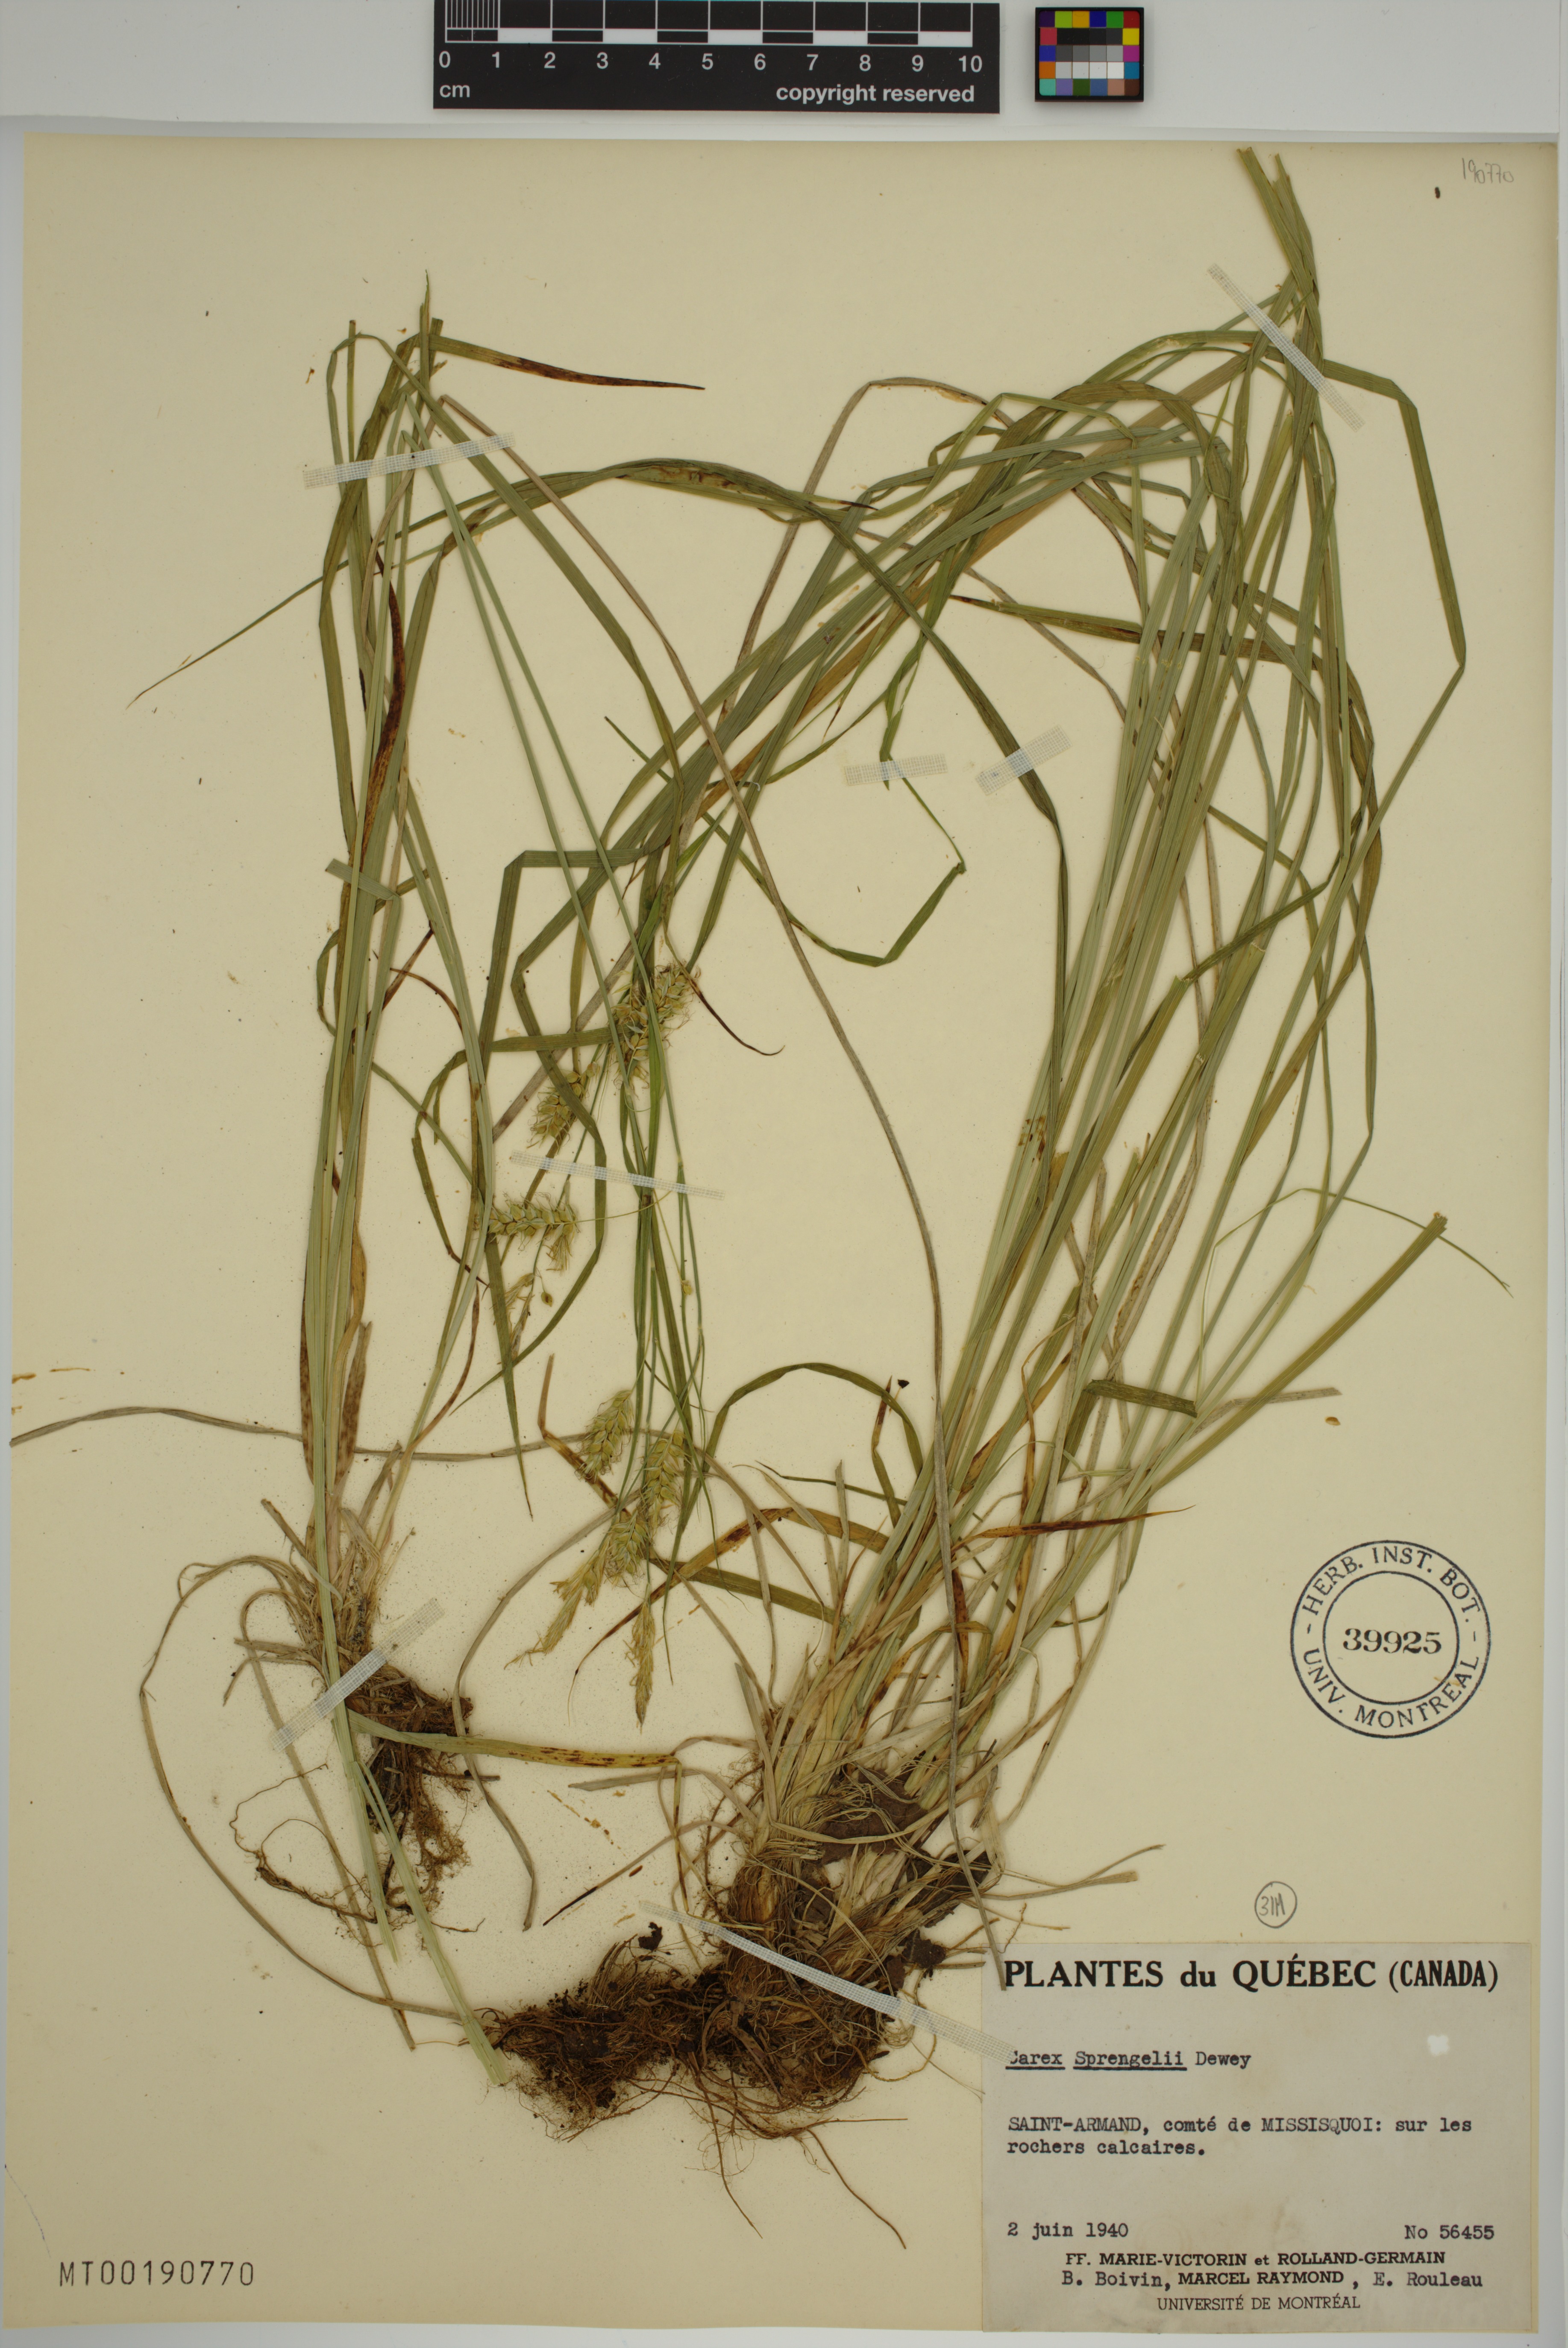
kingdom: Plantae
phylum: Tracheophyta
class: Liliopsida
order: Poales
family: Cyperaceae
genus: Carex
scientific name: Carex sprengelii
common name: Long-beaked sedge
